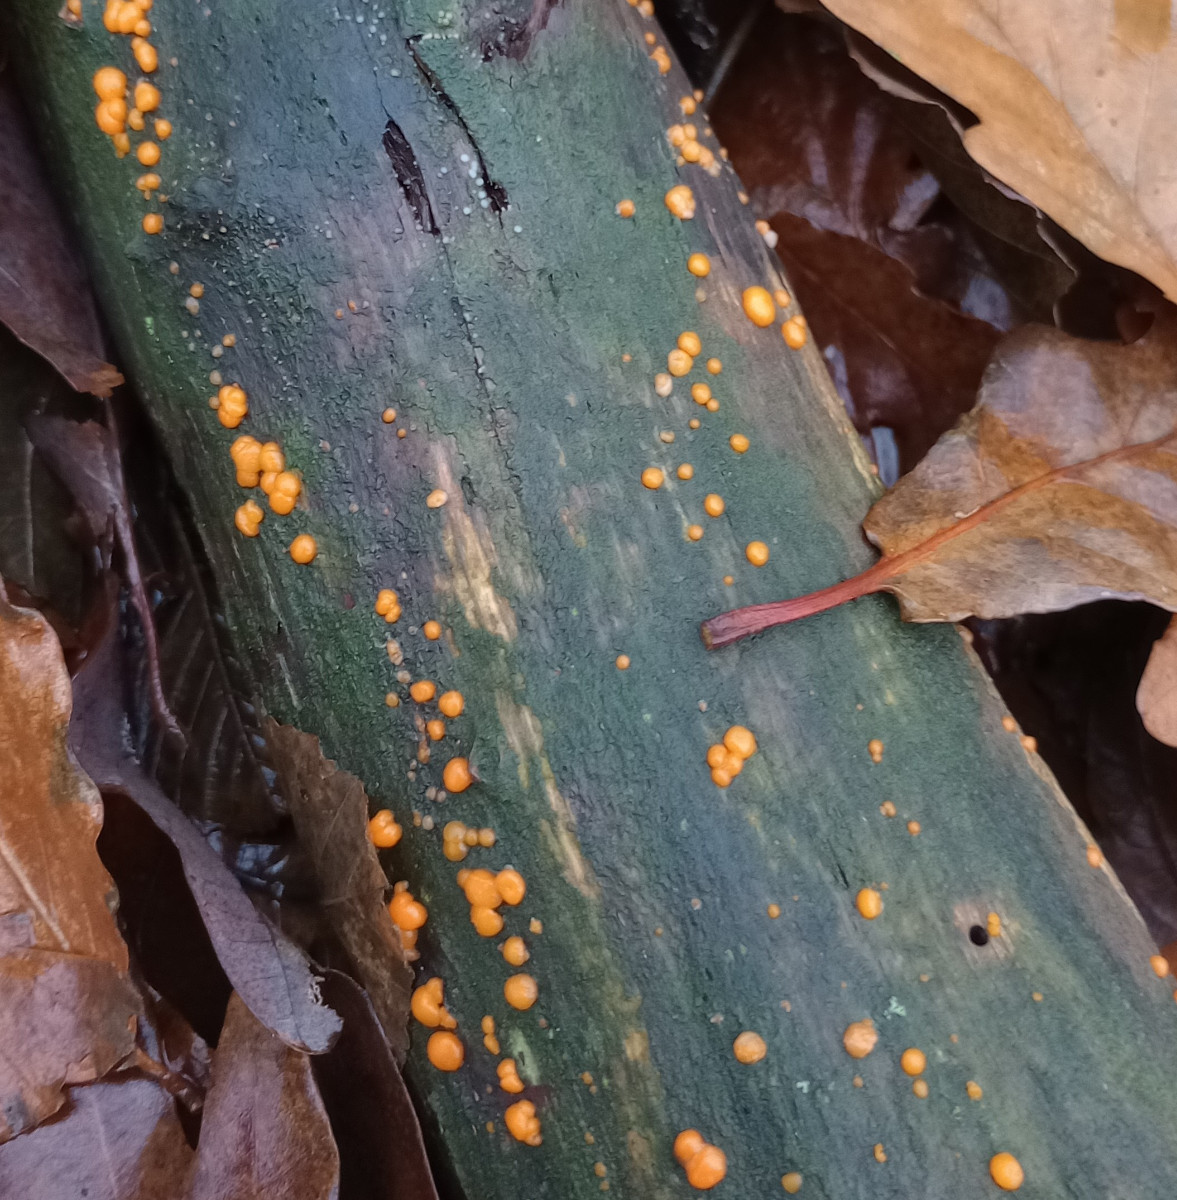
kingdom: Fungi
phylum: Basidiomycota
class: Dacrymycetes
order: Dacrymycetales
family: Dacrymycetaceae
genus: Dacrymyces
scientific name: Dacrymyces stillatus
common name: almindelig tåresvamp
